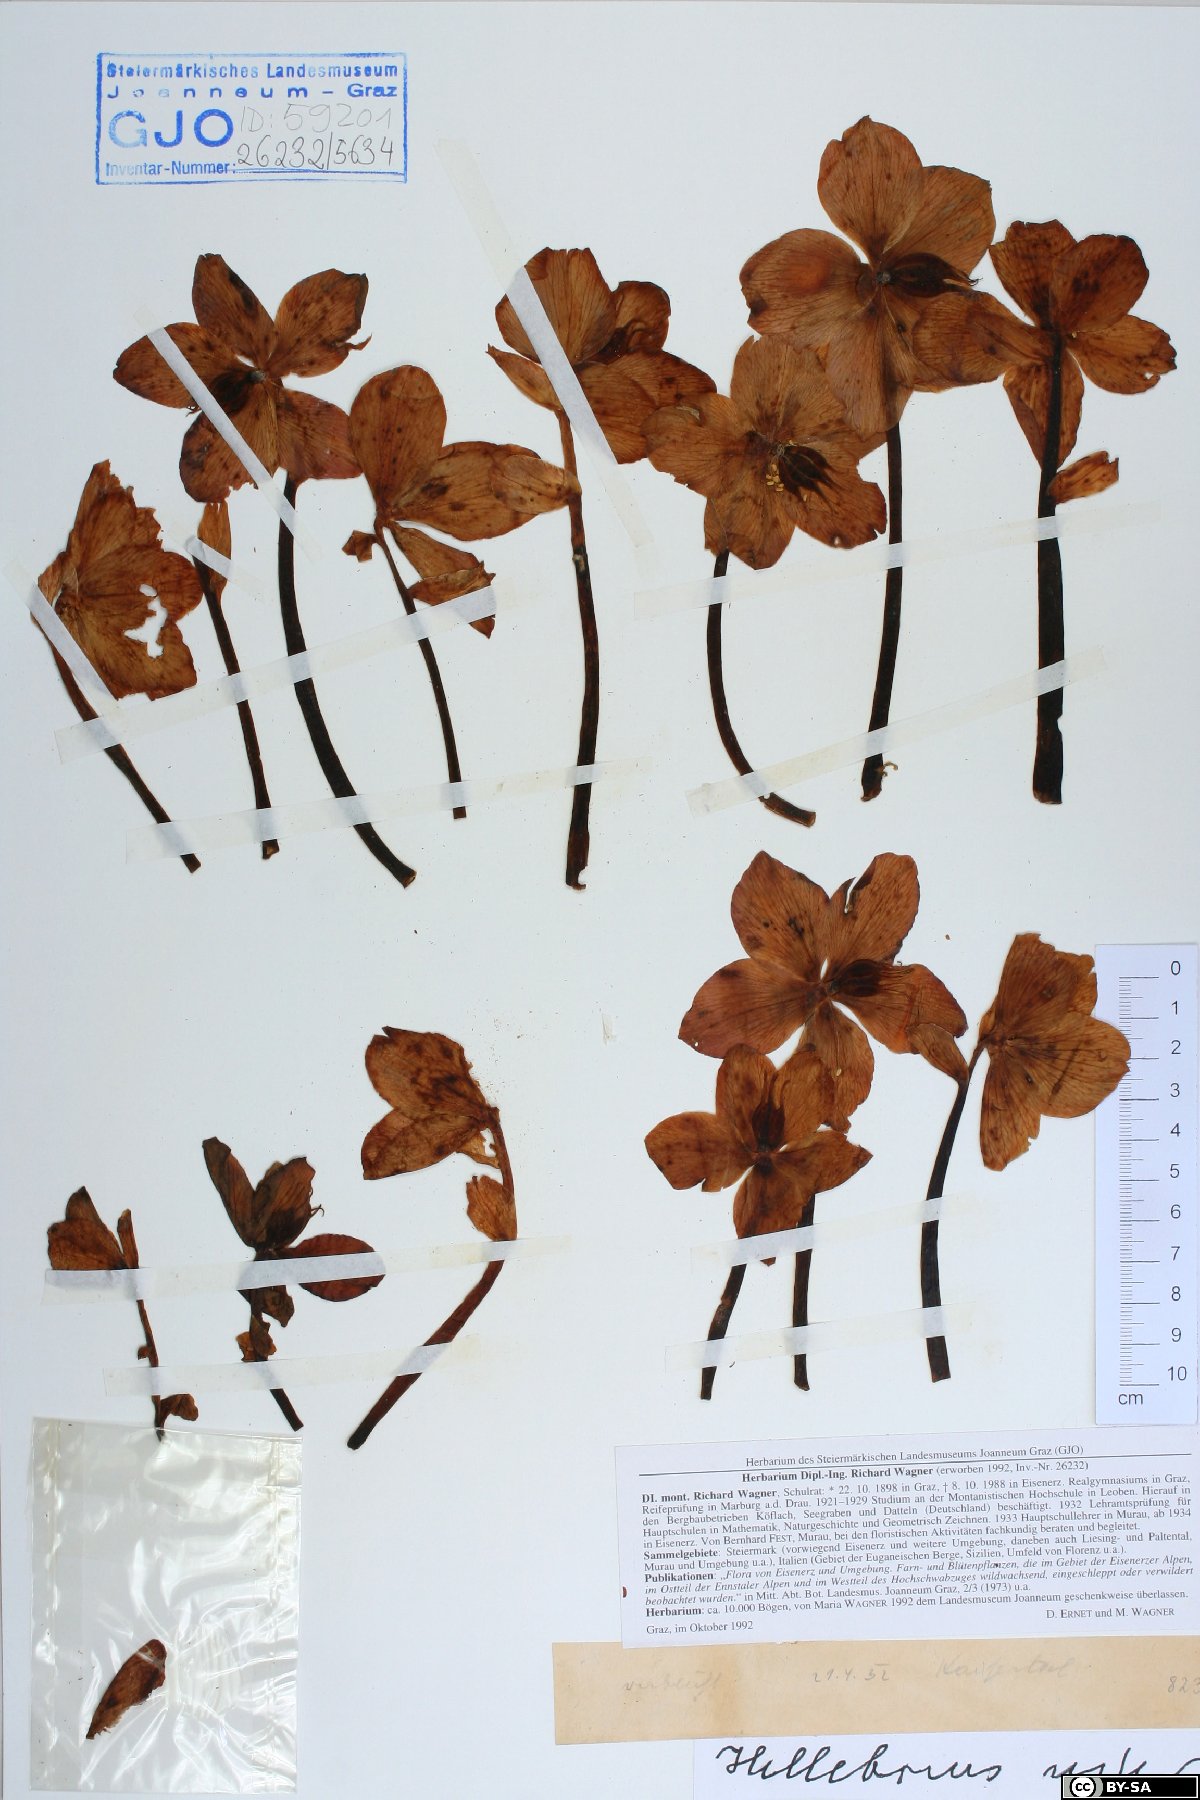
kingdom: Plantae
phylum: Tracheophyta
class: Magnoliopsida
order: Ranunculales
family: Ranunculaceae
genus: Helleborus
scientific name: Helleborus niger
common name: Black hellebore
